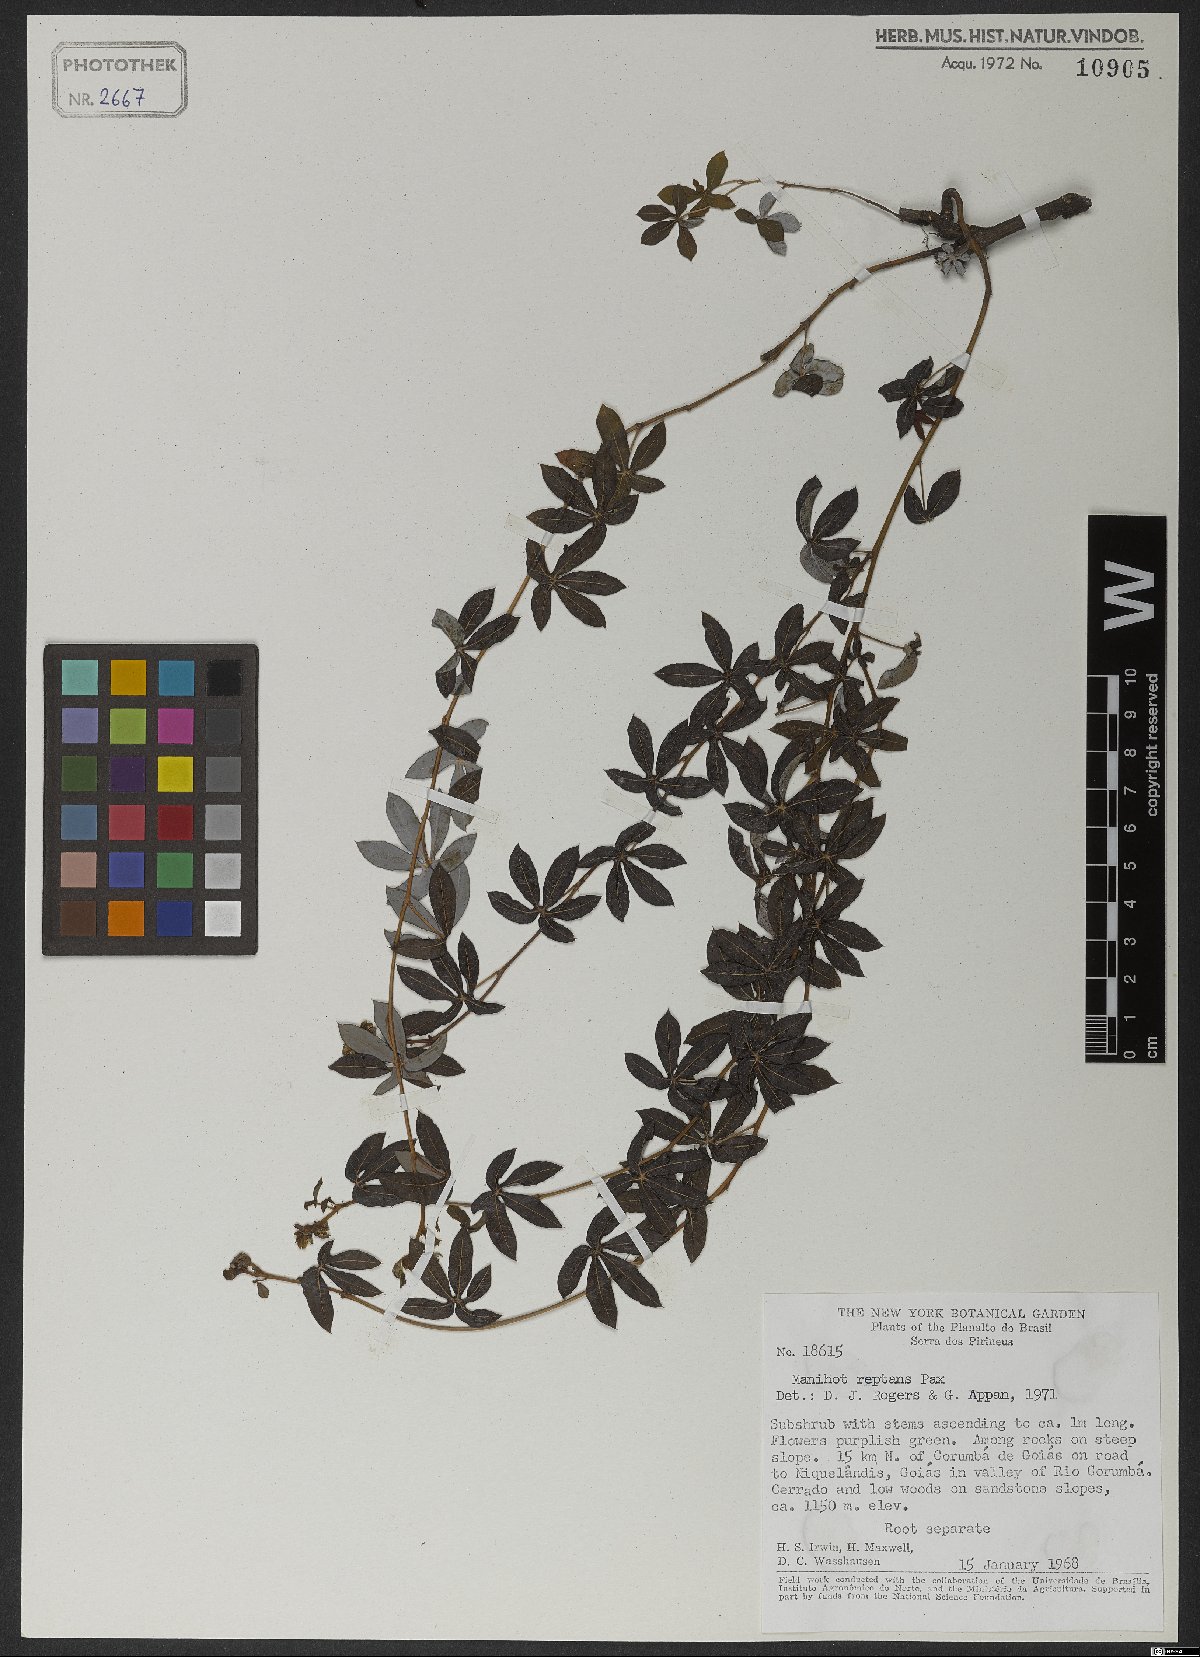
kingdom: Plantae
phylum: Tracheophyta
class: Magnoliopsida
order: Malpighiales
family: Euphorbiaceae
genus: Manihot
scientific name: Manihot reptans
